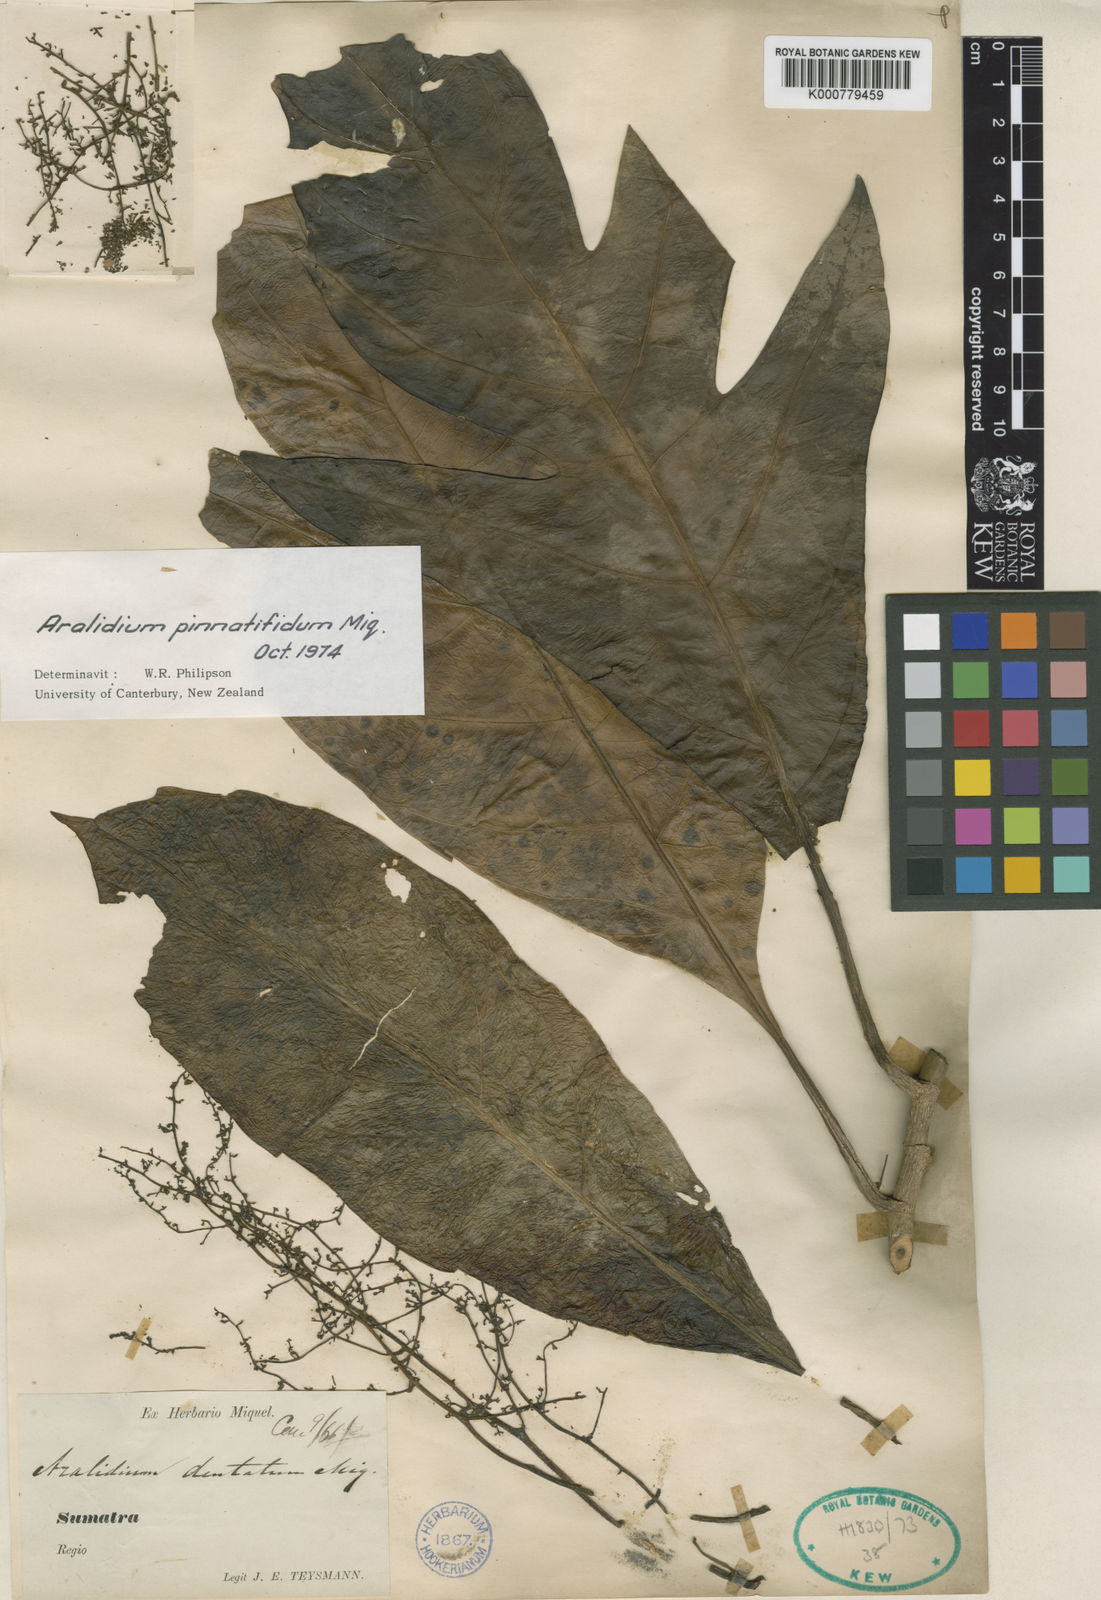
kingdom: Plantae
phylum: Tracheophyta
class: Magnoliopsida
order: Apiales
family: Torricelliaceae
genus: Aralidium
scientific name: Aralidium pinnatifidum
